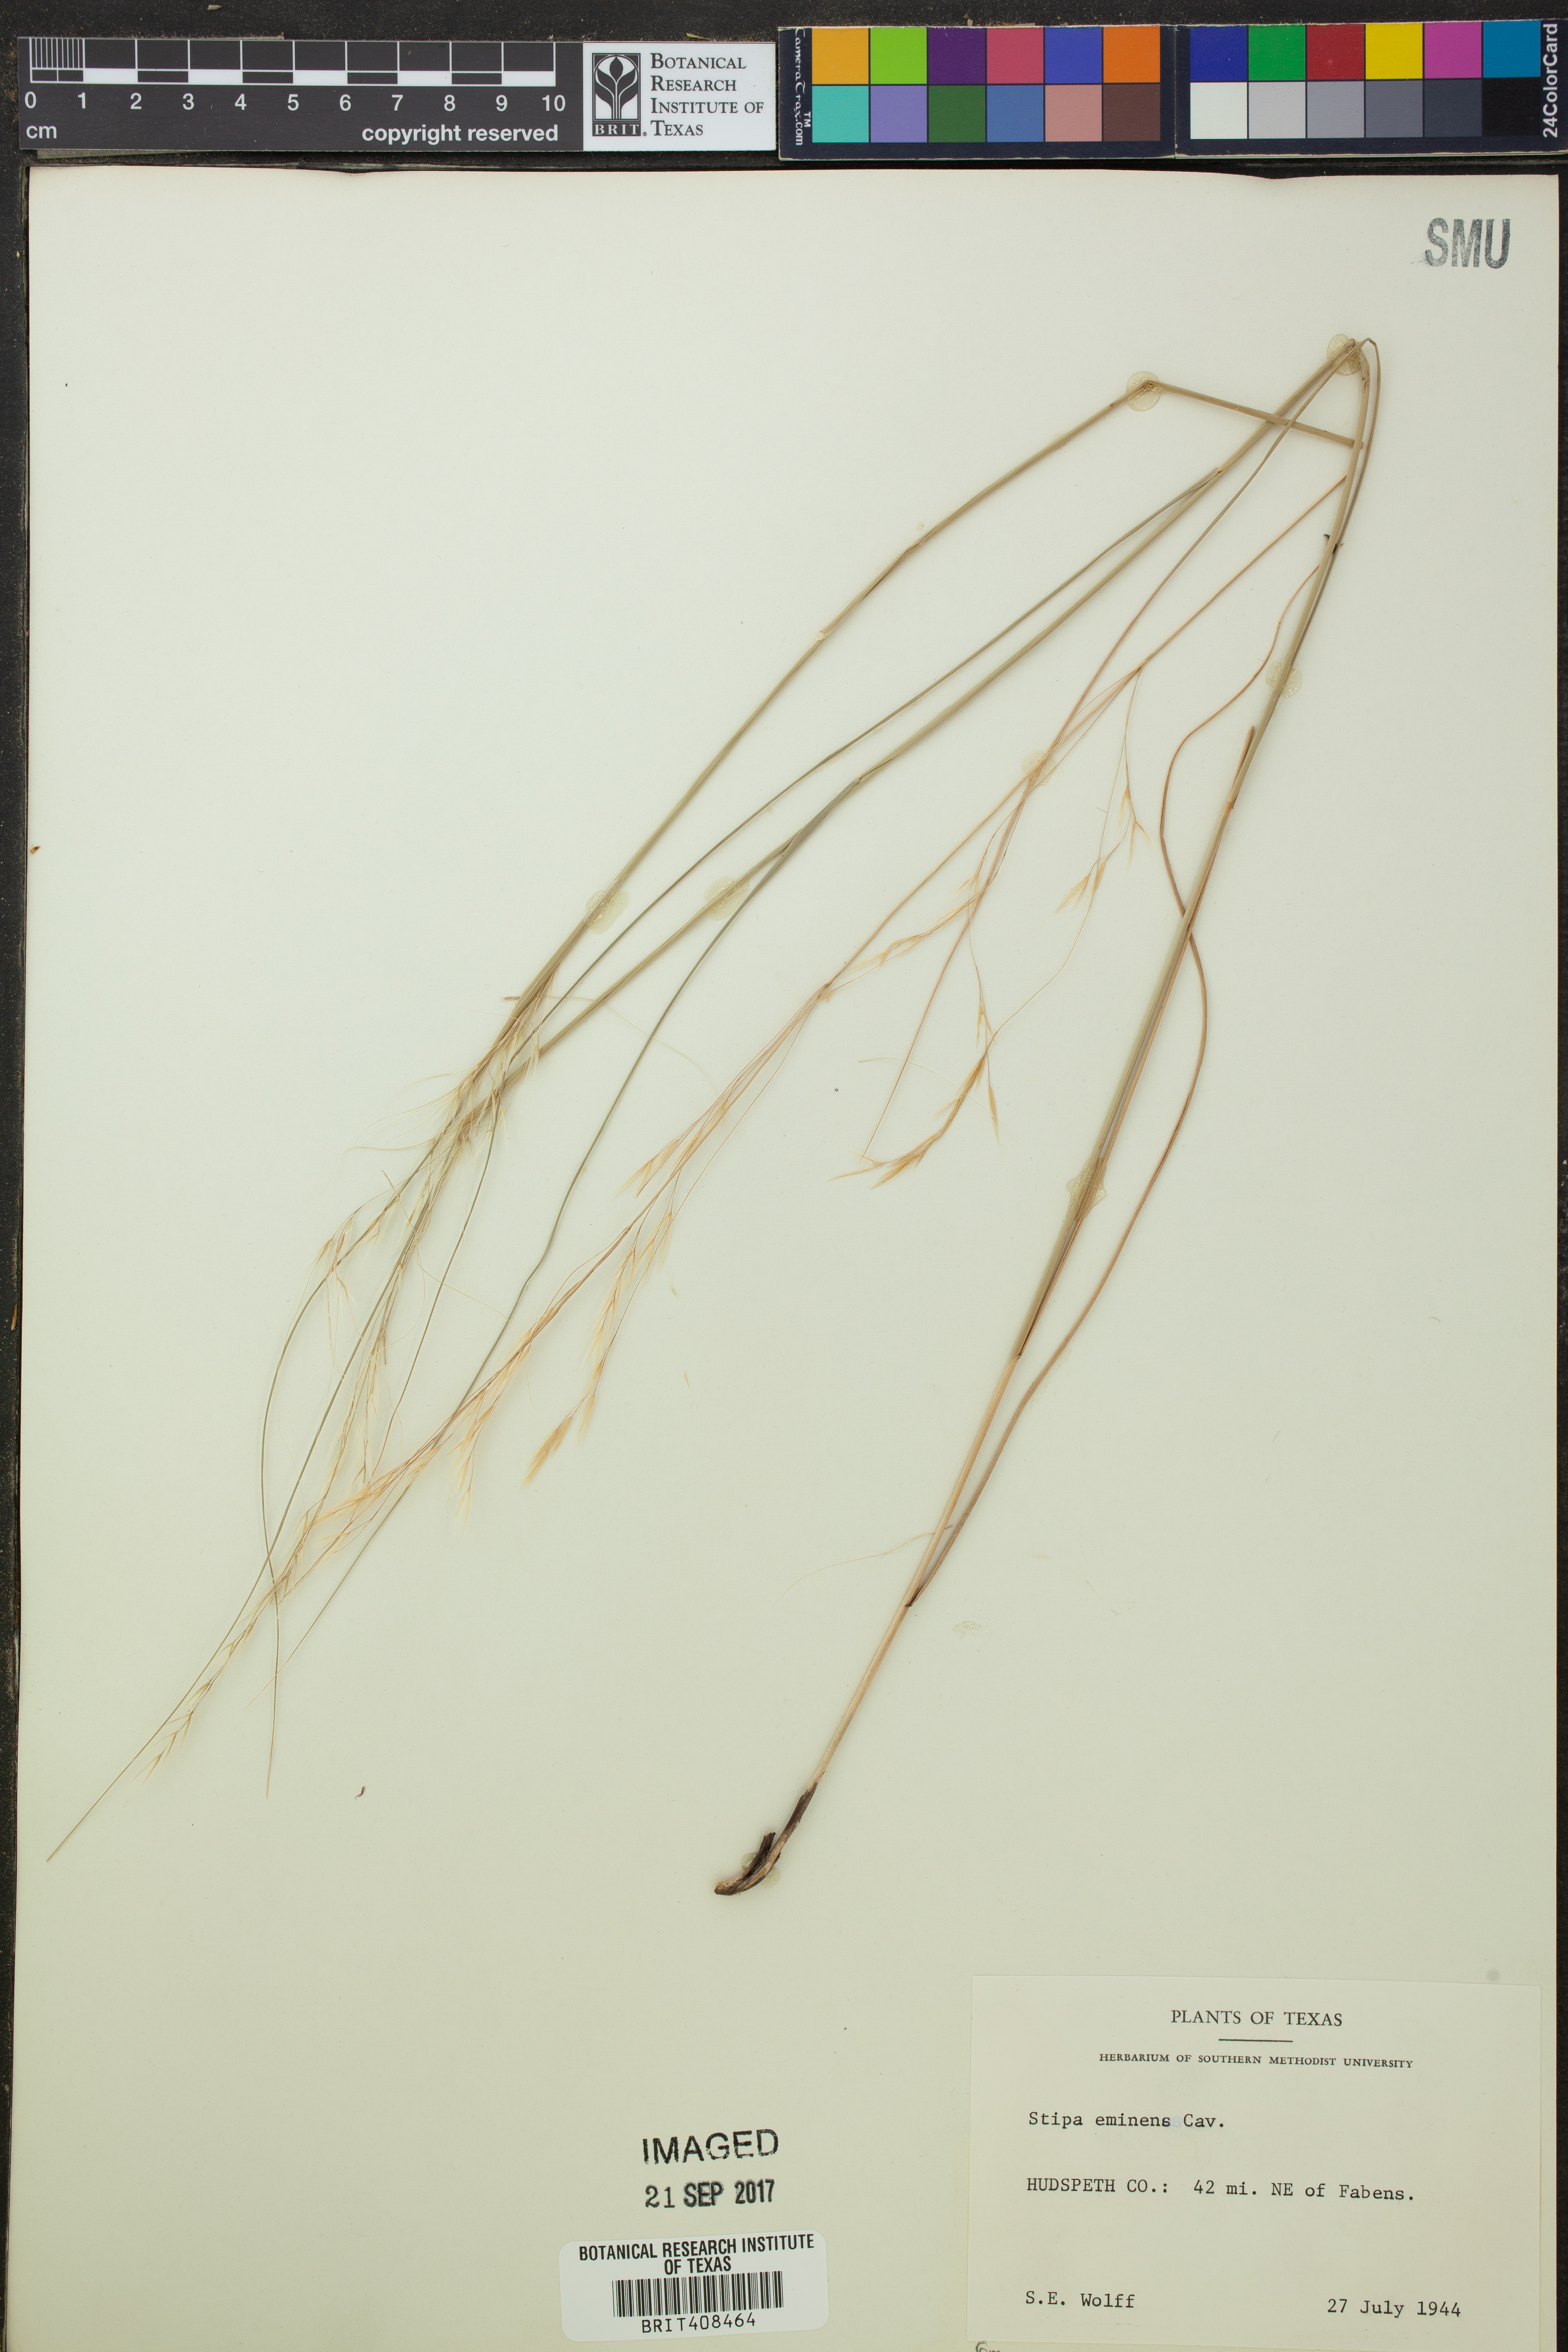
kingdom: Plantae
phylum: Tracheophyta
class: Liliopsida
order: Poales
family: Poaceae
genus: Pseudoeriocoma
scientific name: Pseudoeriocoma eminens
